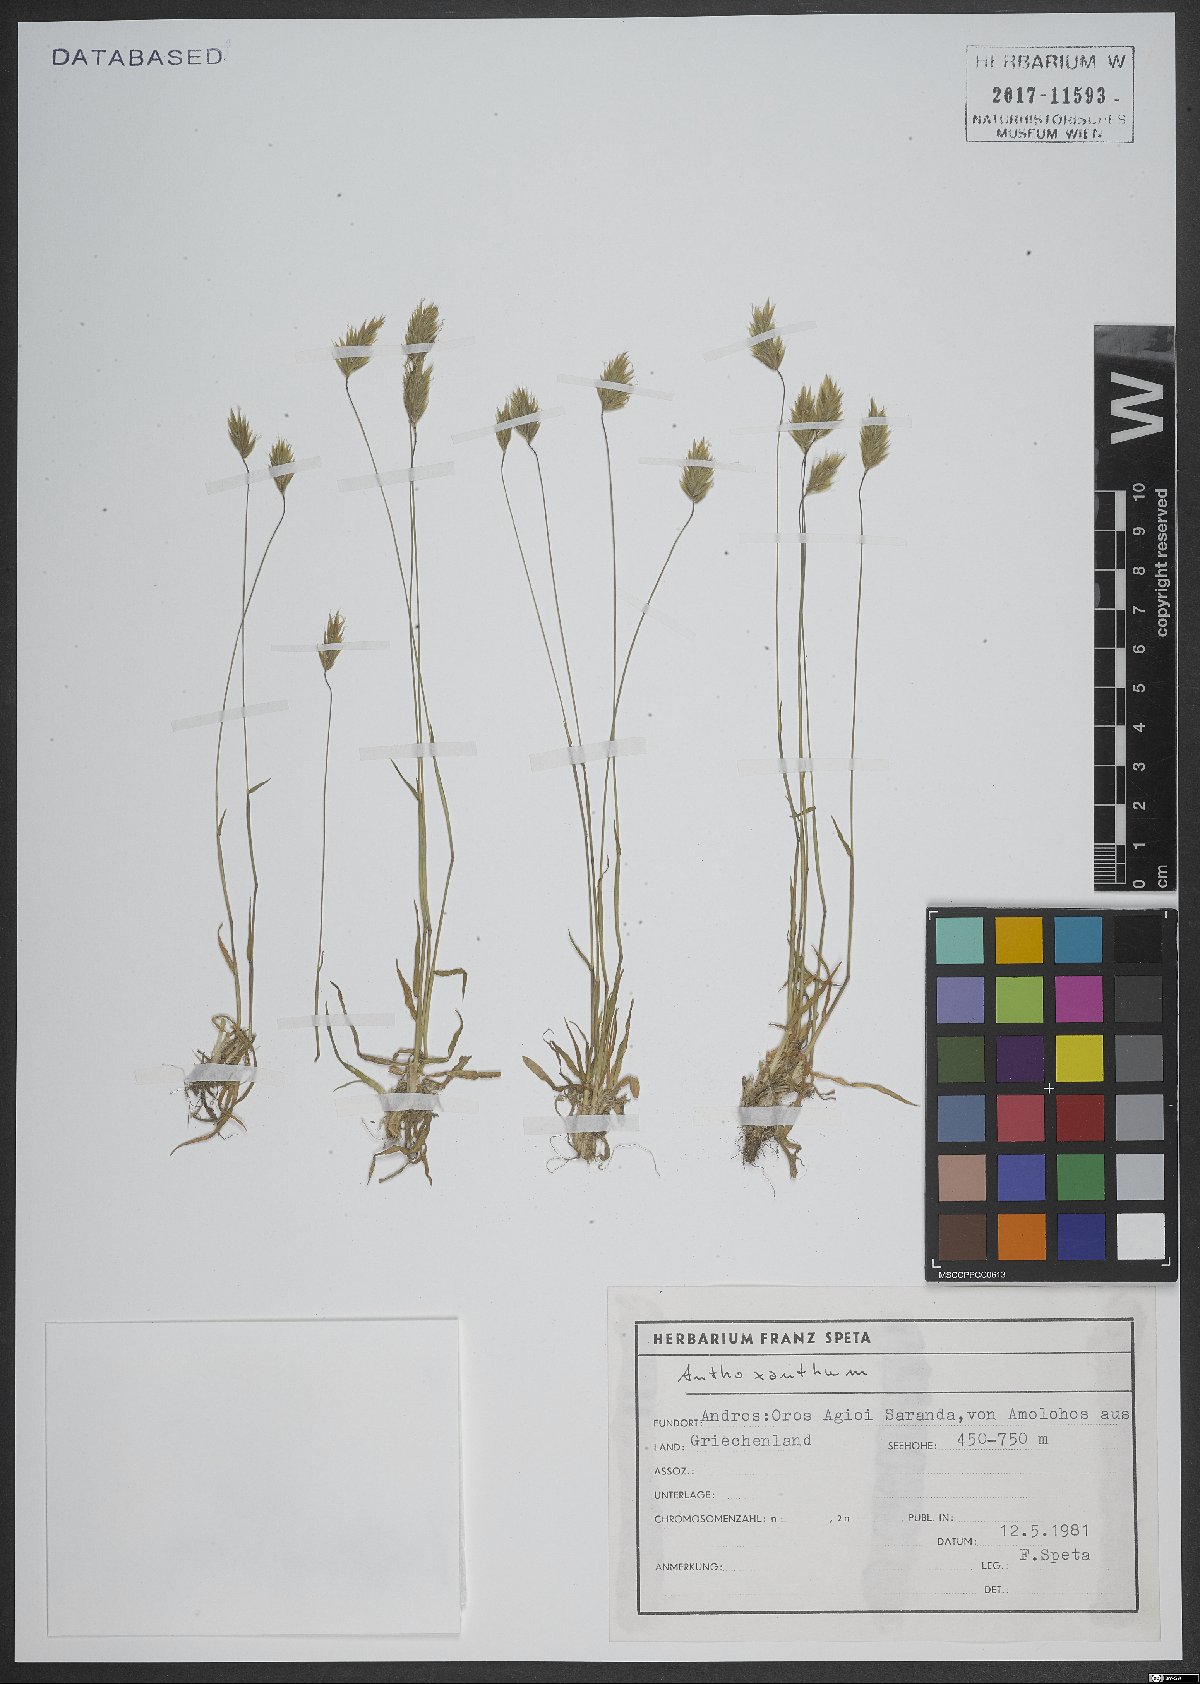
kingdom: Plantae
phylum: Tracheophyta
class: Liliopsida
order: Poales
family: Poaceae
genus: Anthoxanthum
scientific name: Anthoxanthum
